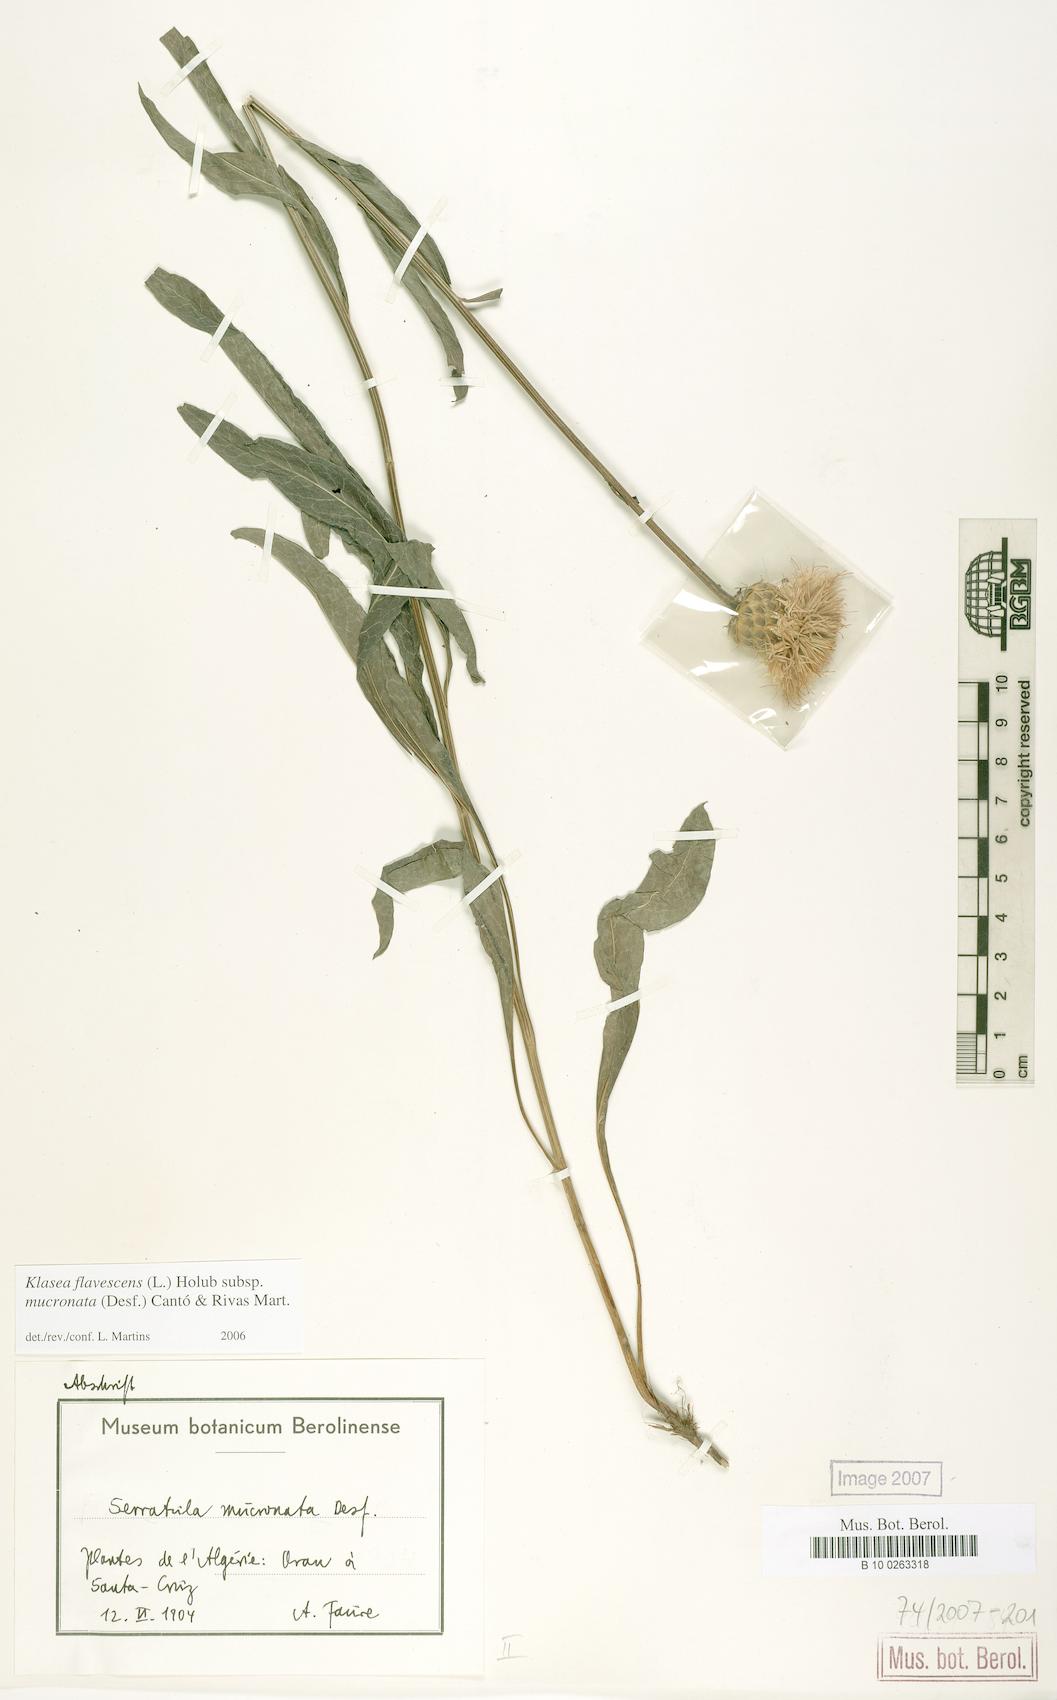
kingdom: Plantae
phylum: Tracheophyta
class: Magnoliopsida
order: Asterales
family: Asteraceae
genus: Klasea
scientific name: Klasea flavescens
